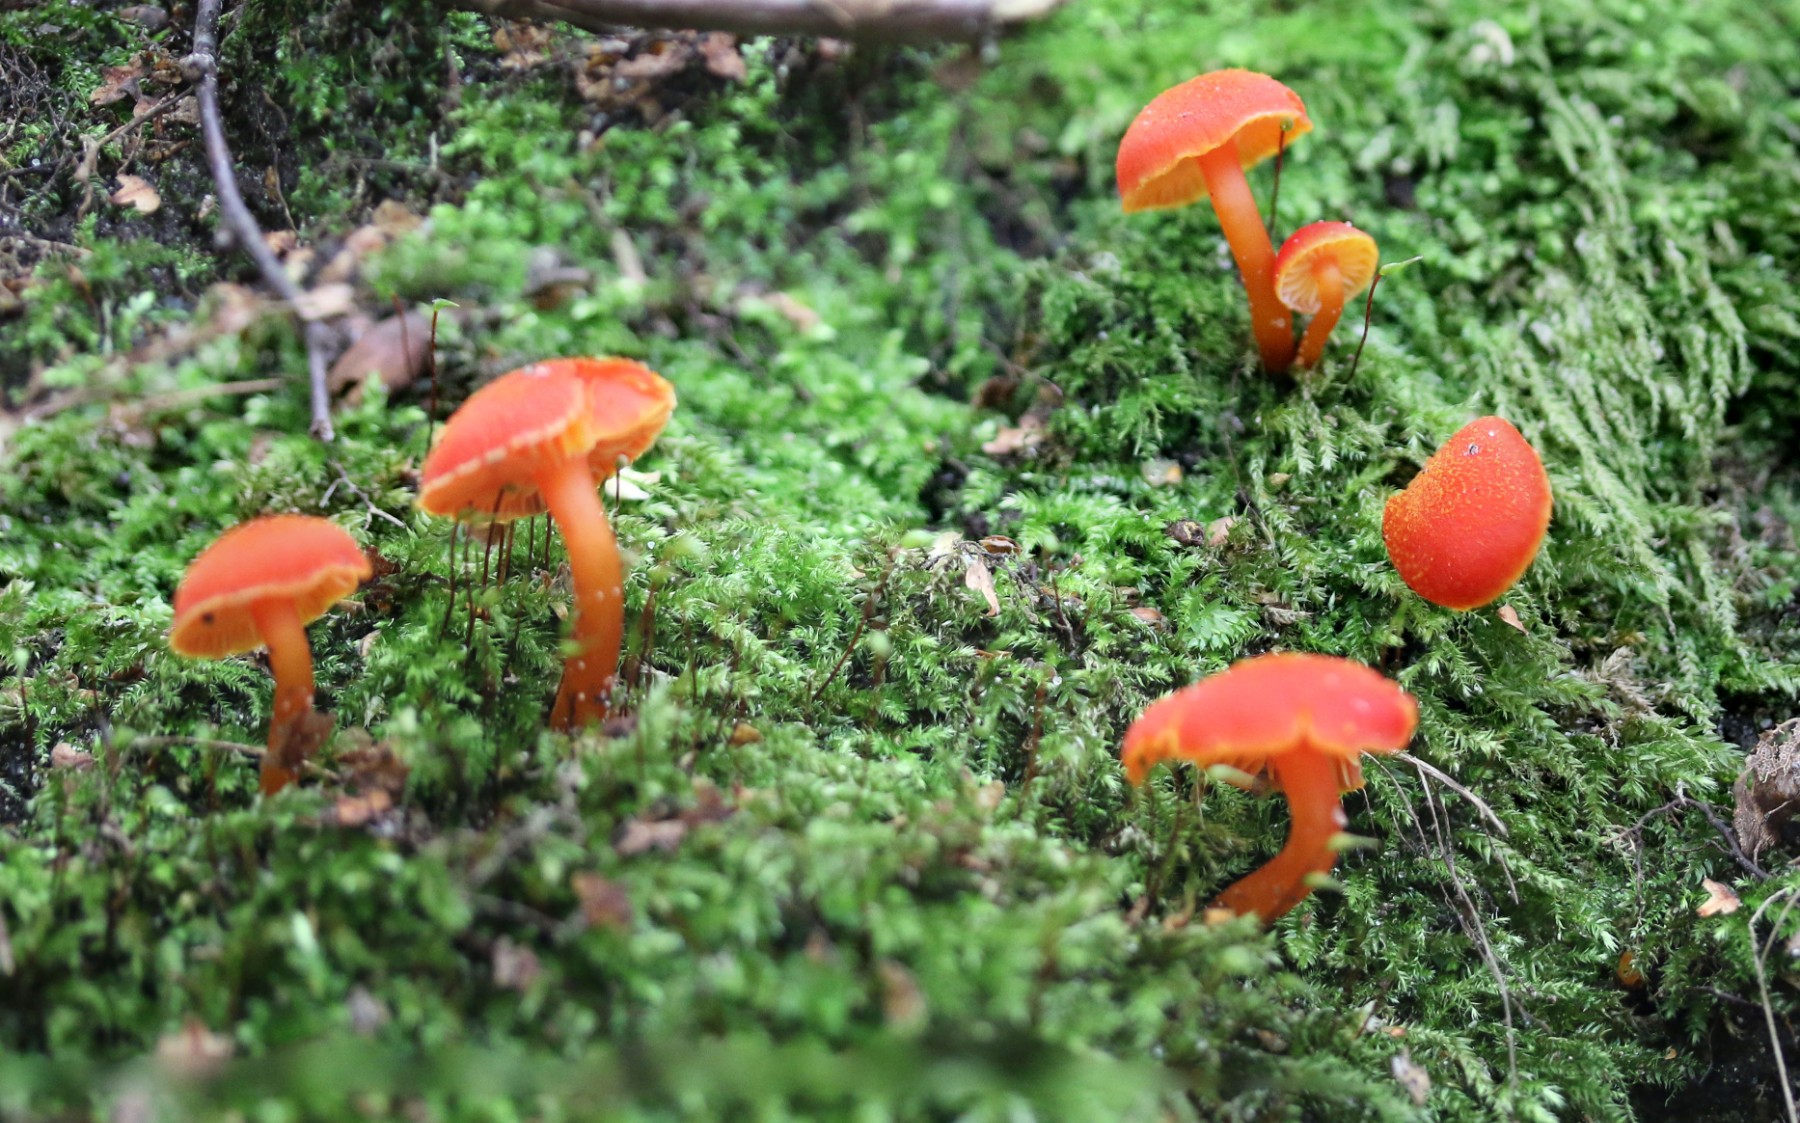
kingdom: Fungi
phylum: Basidiomycota
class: Agaricomycetes
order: Agaricales
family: Hygrophoraceae
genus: Hygrocybe
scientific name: Hygrocybe miniata
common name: mønje-vokshat
